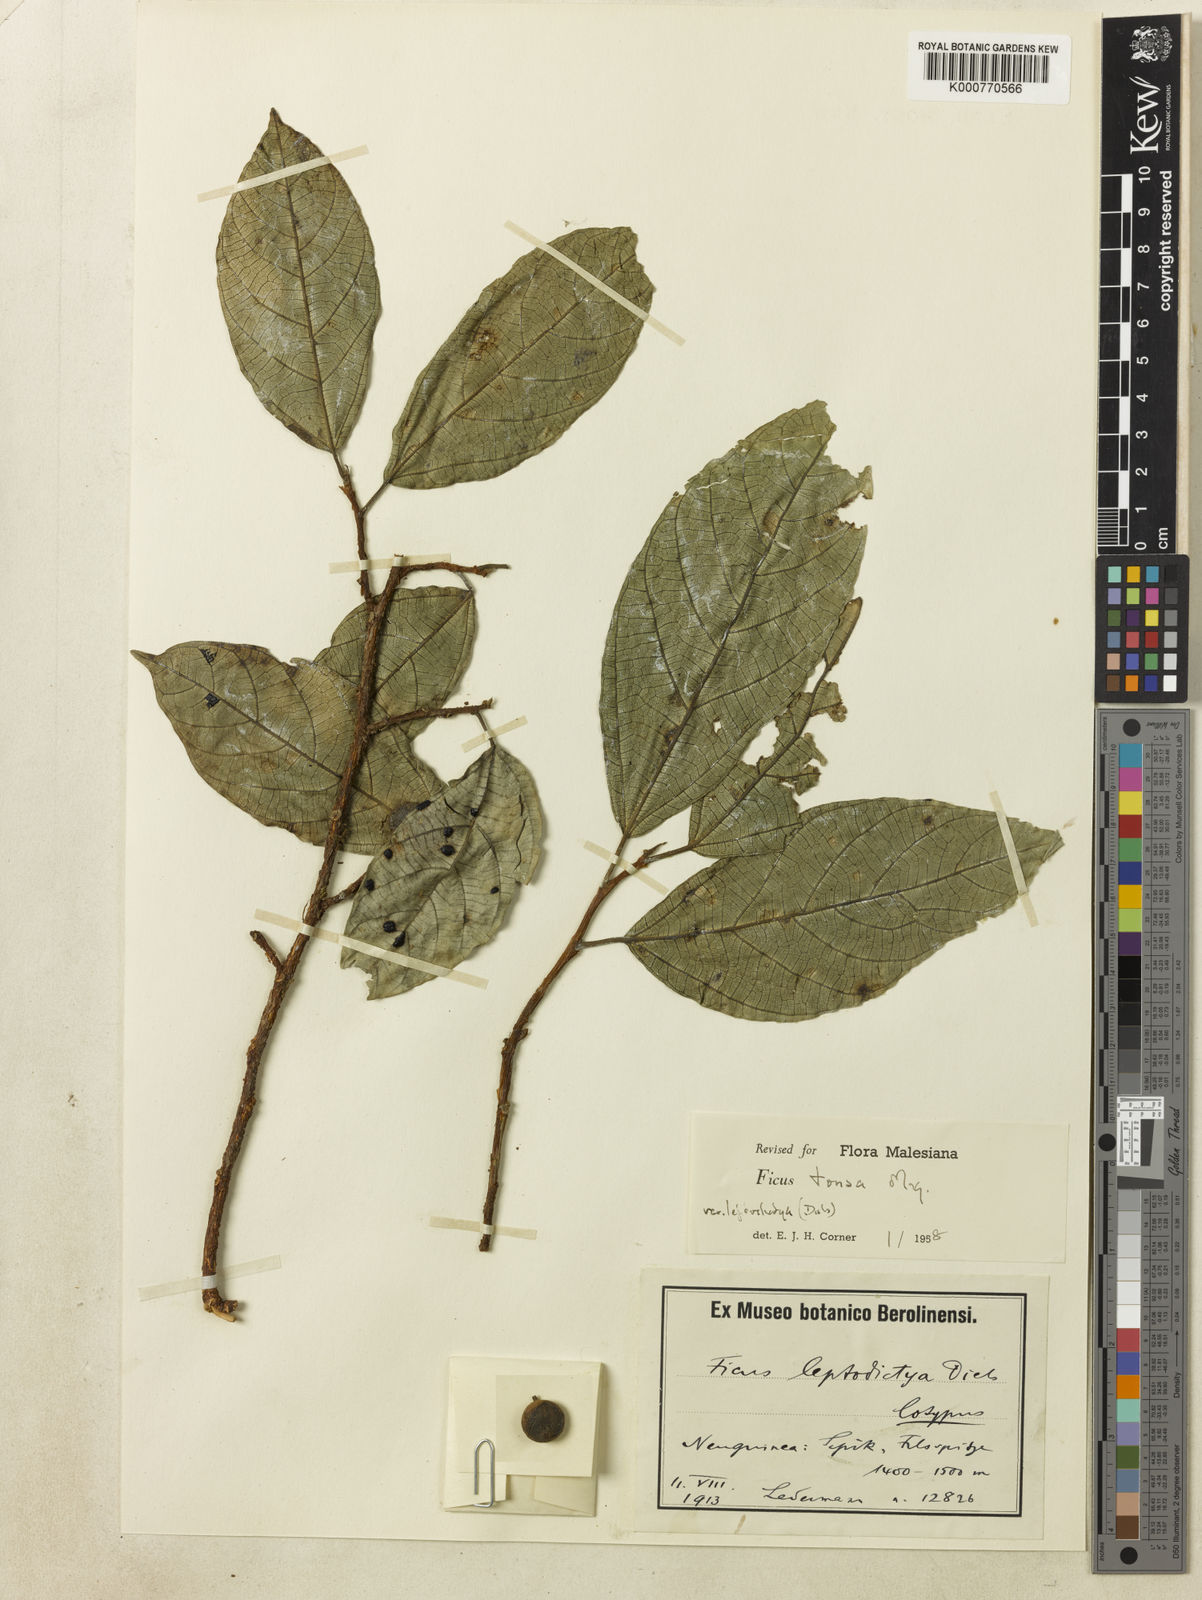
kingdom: Plantae
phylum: Tracheophyta
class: Magnoliopsida
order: Rosales
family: Moraceae
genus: Ficus
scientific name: Ficus tonsa
